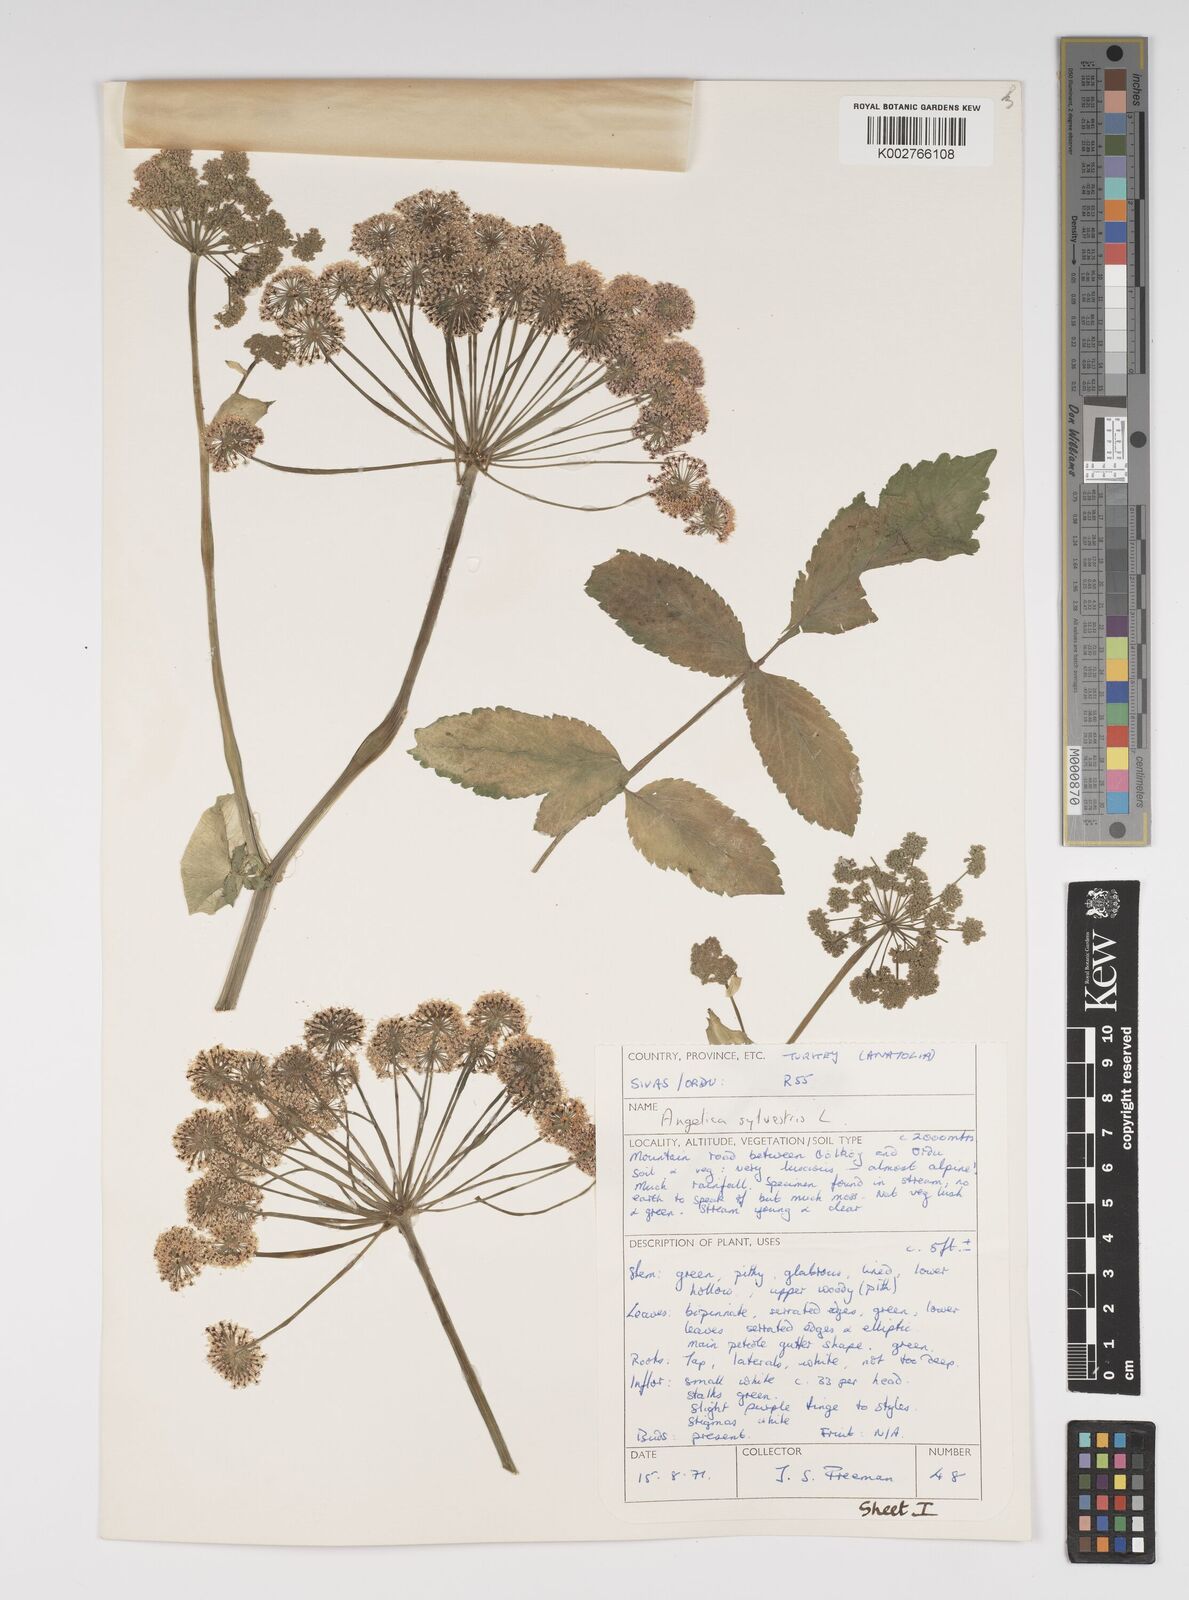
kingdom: Plantae
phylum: Tracheophyta
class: Magnoliopsida
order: Apiales
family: Apiaceae
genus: Angelica
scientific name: Angelica sylvestris
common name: Wild angelica
